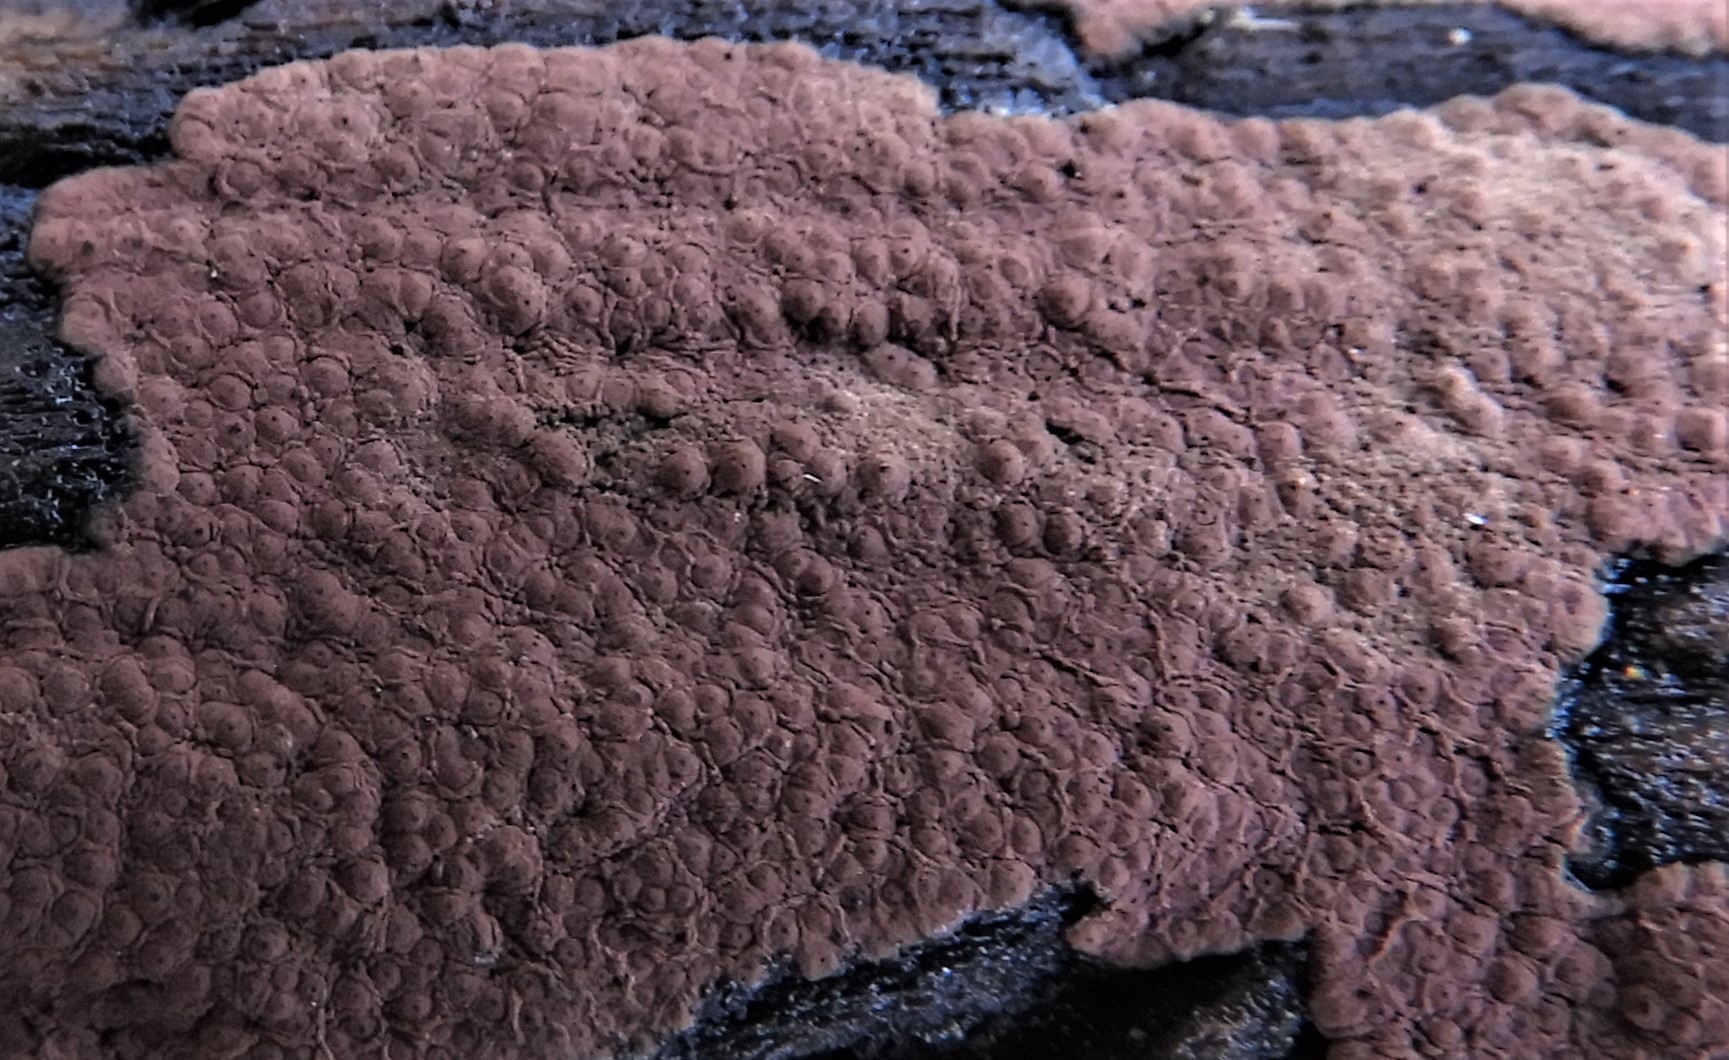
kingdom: Fungi
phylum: Ascomycota
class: Sordariomycetes
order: Xylariales
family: Hypoxylaceae
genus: Hypoxylon
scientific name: Hypoxylon petriniae
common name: nedsænket kulbær
